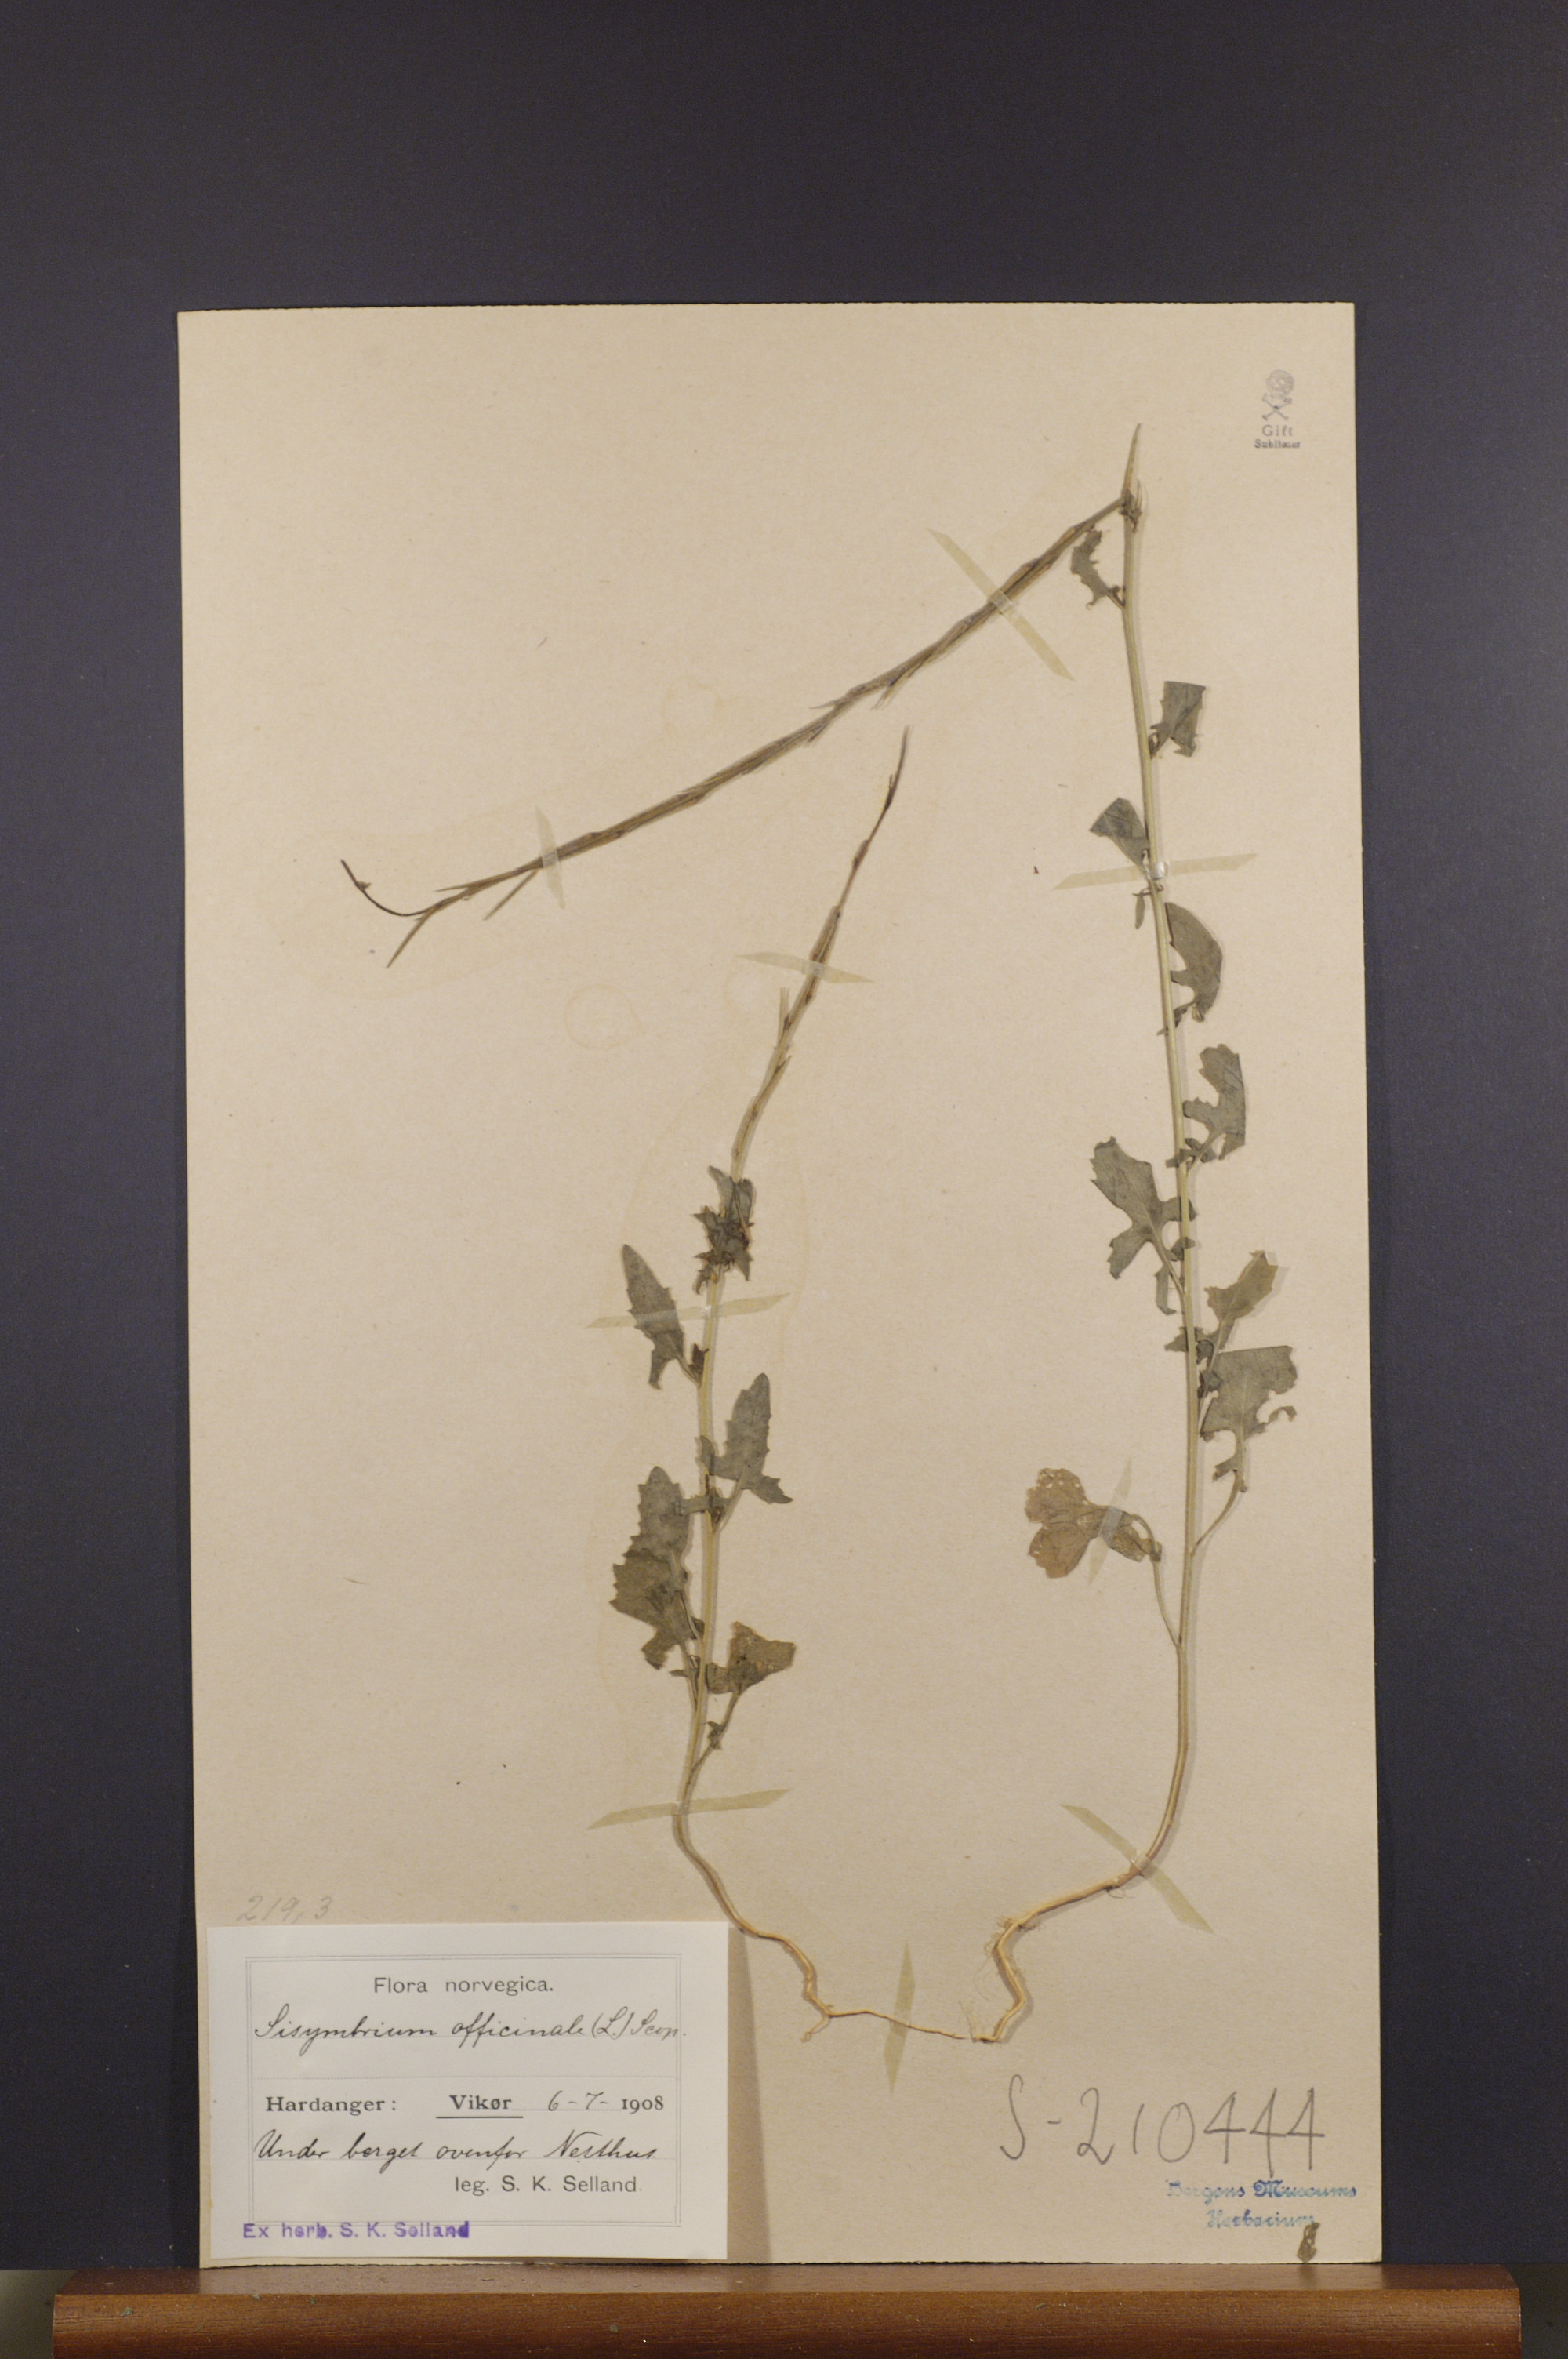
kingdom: Plantae
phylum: Tracheophyta
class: Magnoliopsida
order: Brassicales
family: Brassicaceae
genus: Sisymbrium
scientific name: Sisymbrium officinale
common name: Hedge mustard
